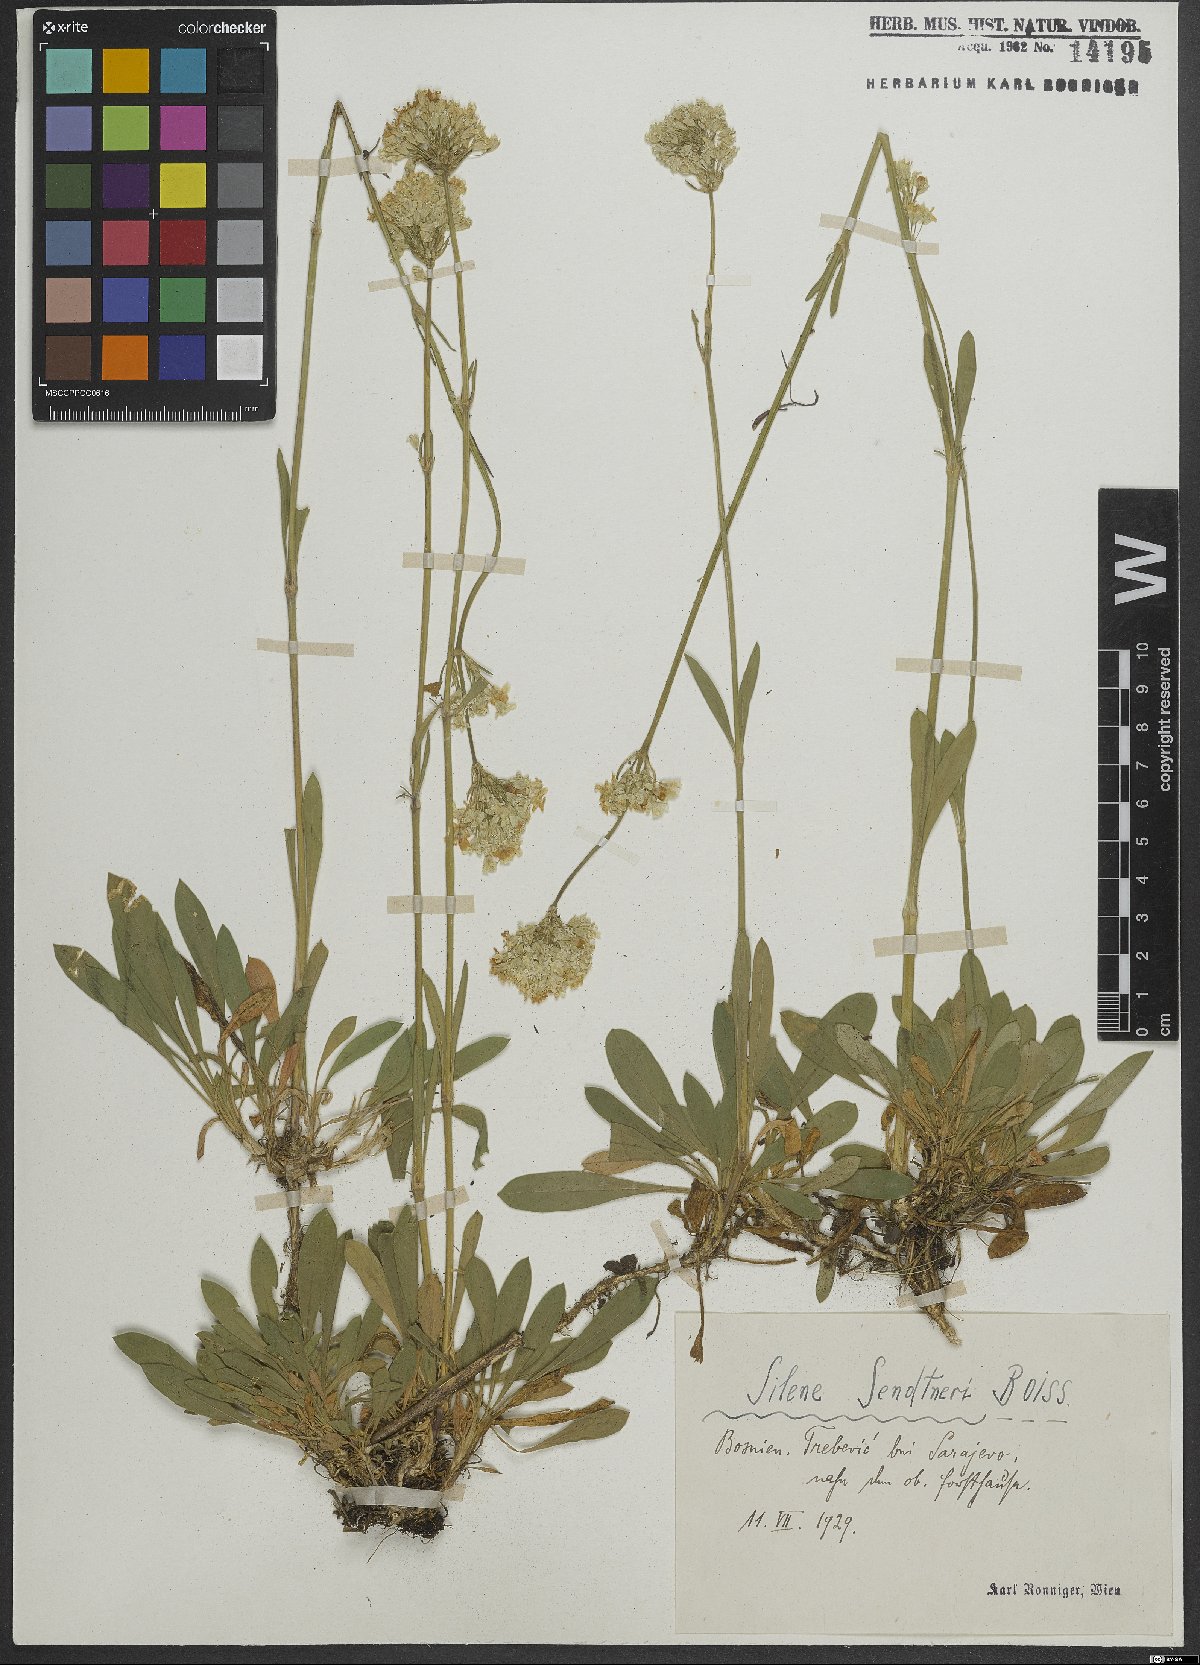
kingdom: Plantae
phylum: Tracheophyta
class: Magnoliopsida
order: Caryophyllales
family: Caryophyllaceae
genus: Silene
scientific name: Silene sendtneri
